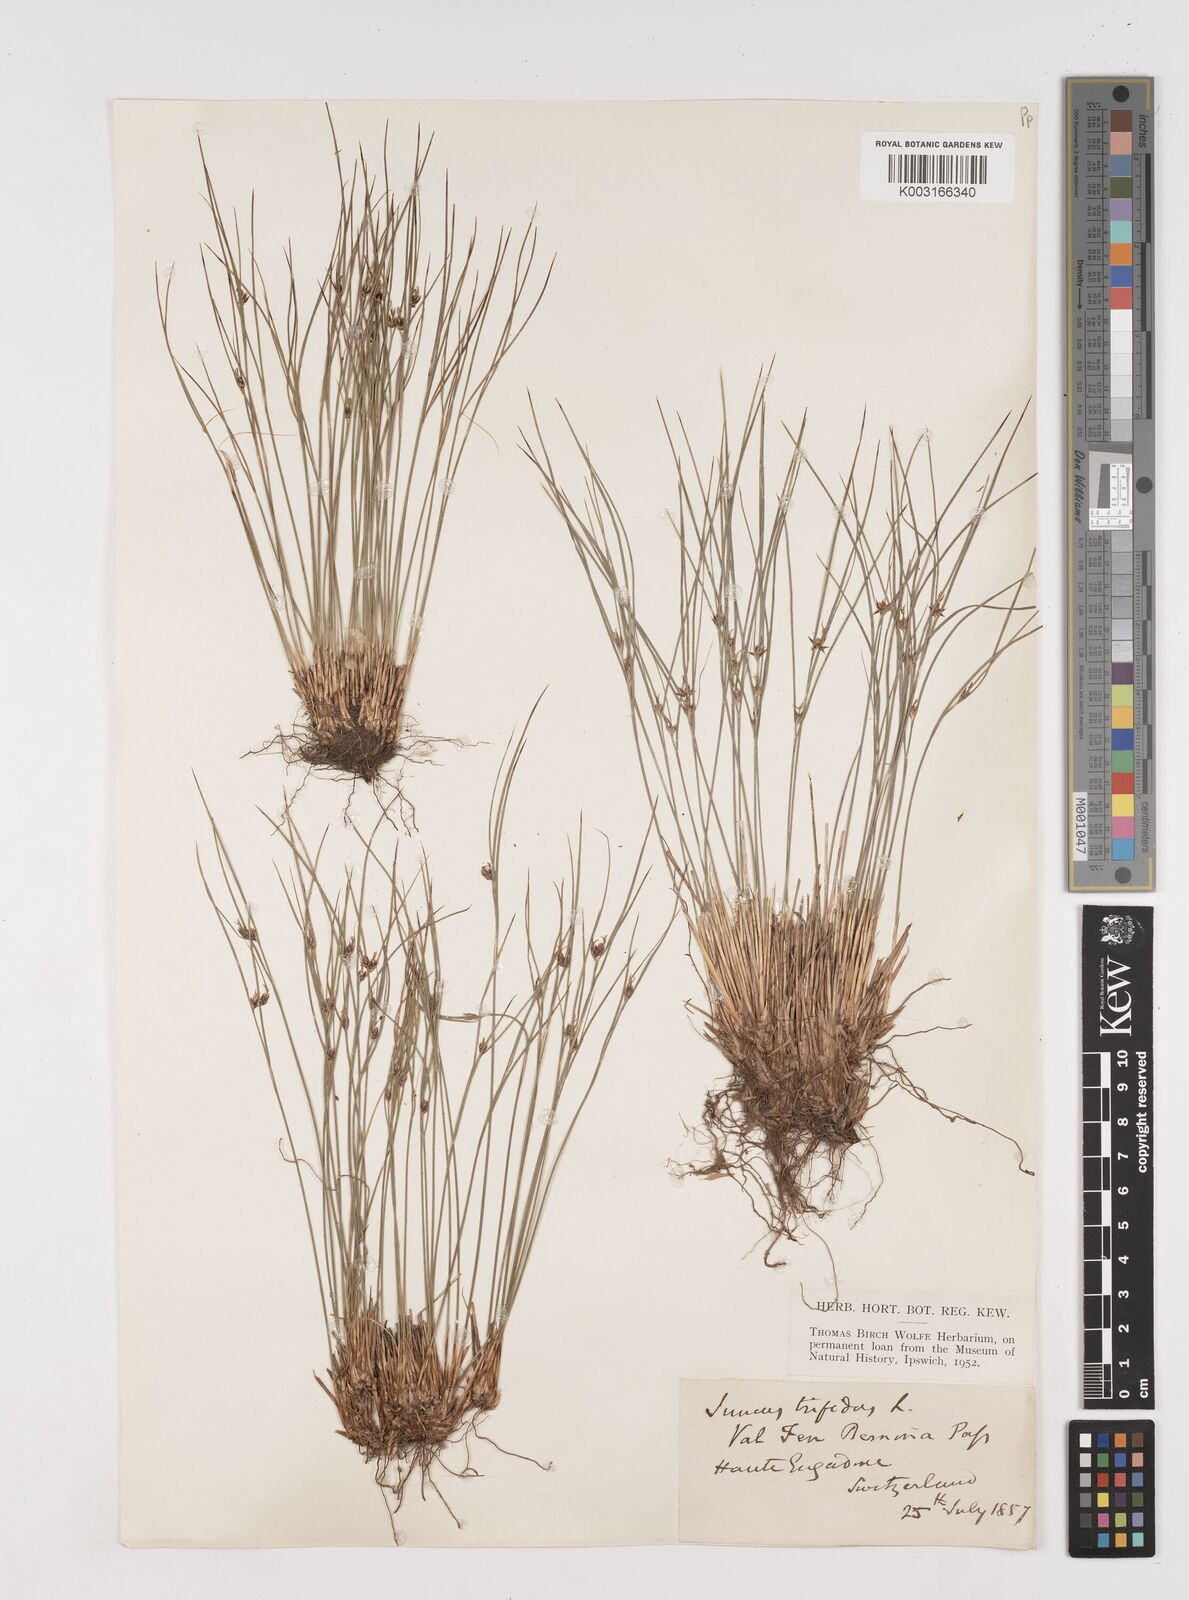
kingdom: Plantae
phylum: Tracheophyta
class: Liliopsida
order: Poales
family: Juncaceae
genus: Oreojuncus
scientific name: Oreojuncus trifidus
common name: Highland rush
